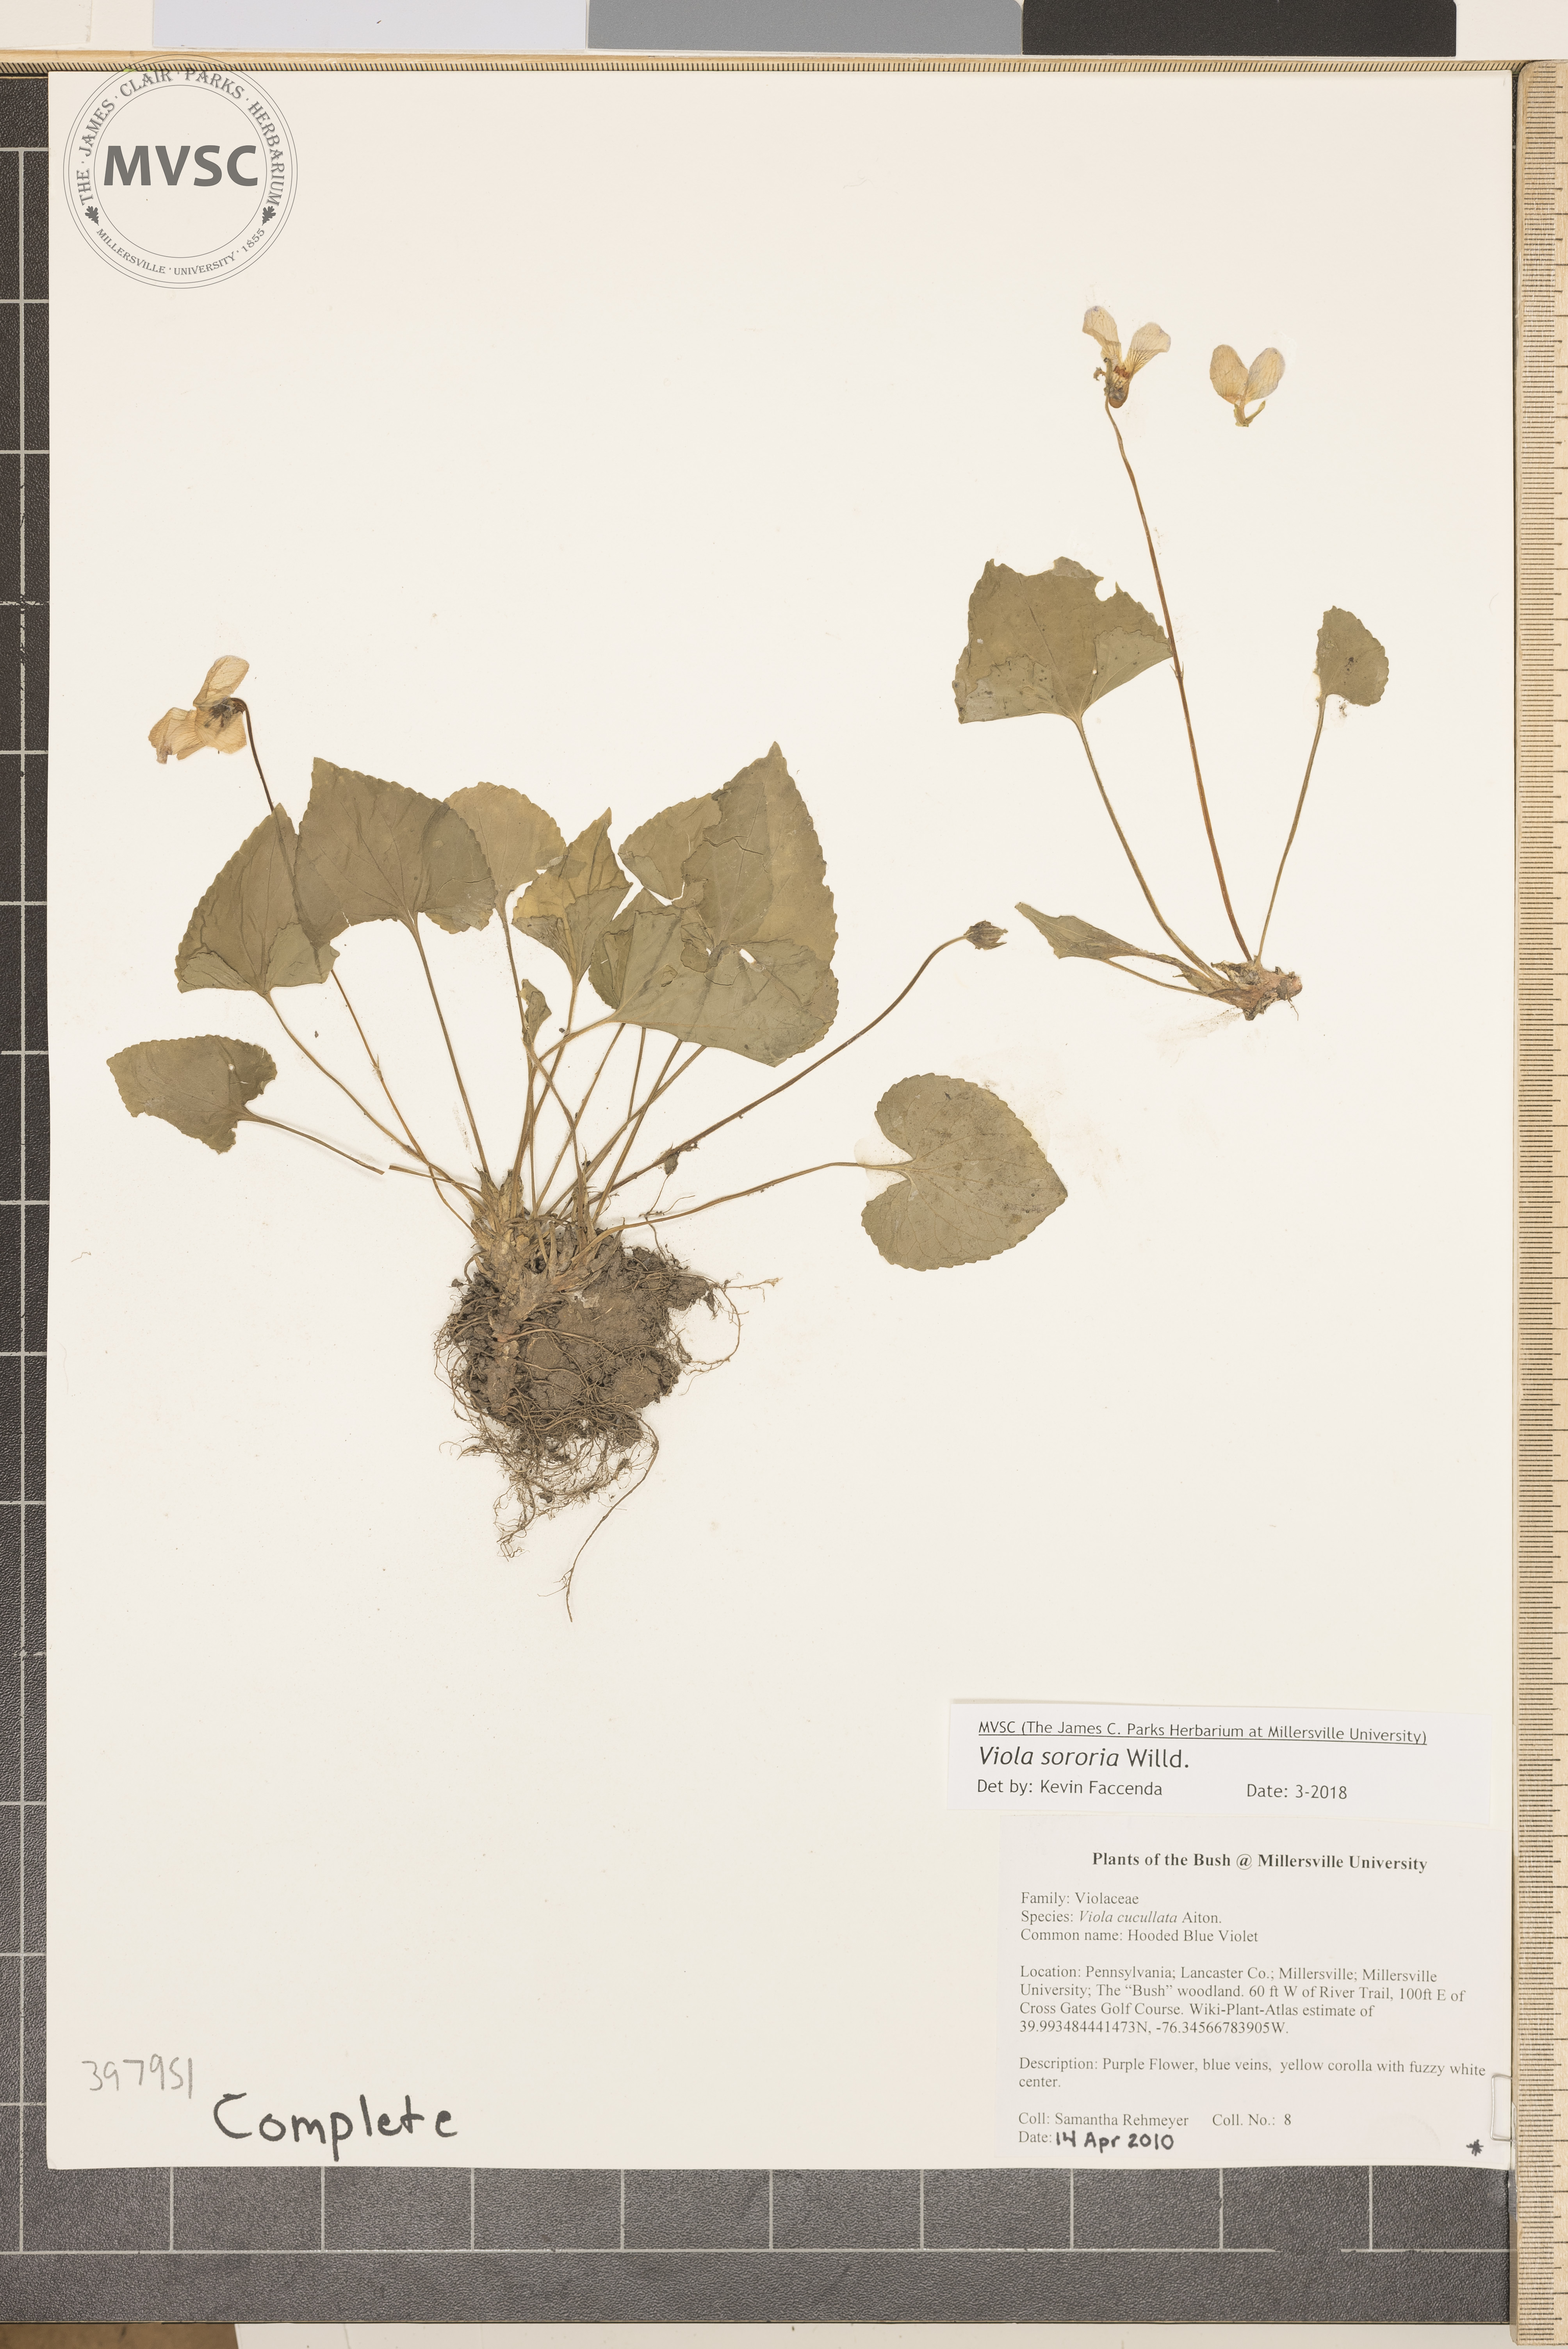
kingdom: Plantae
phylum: Tracheophyta
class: Magnoliopsida
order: Malpighiales
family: Violaceae
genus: Viola
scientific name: Viola sororia
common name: Blue marsh violet
